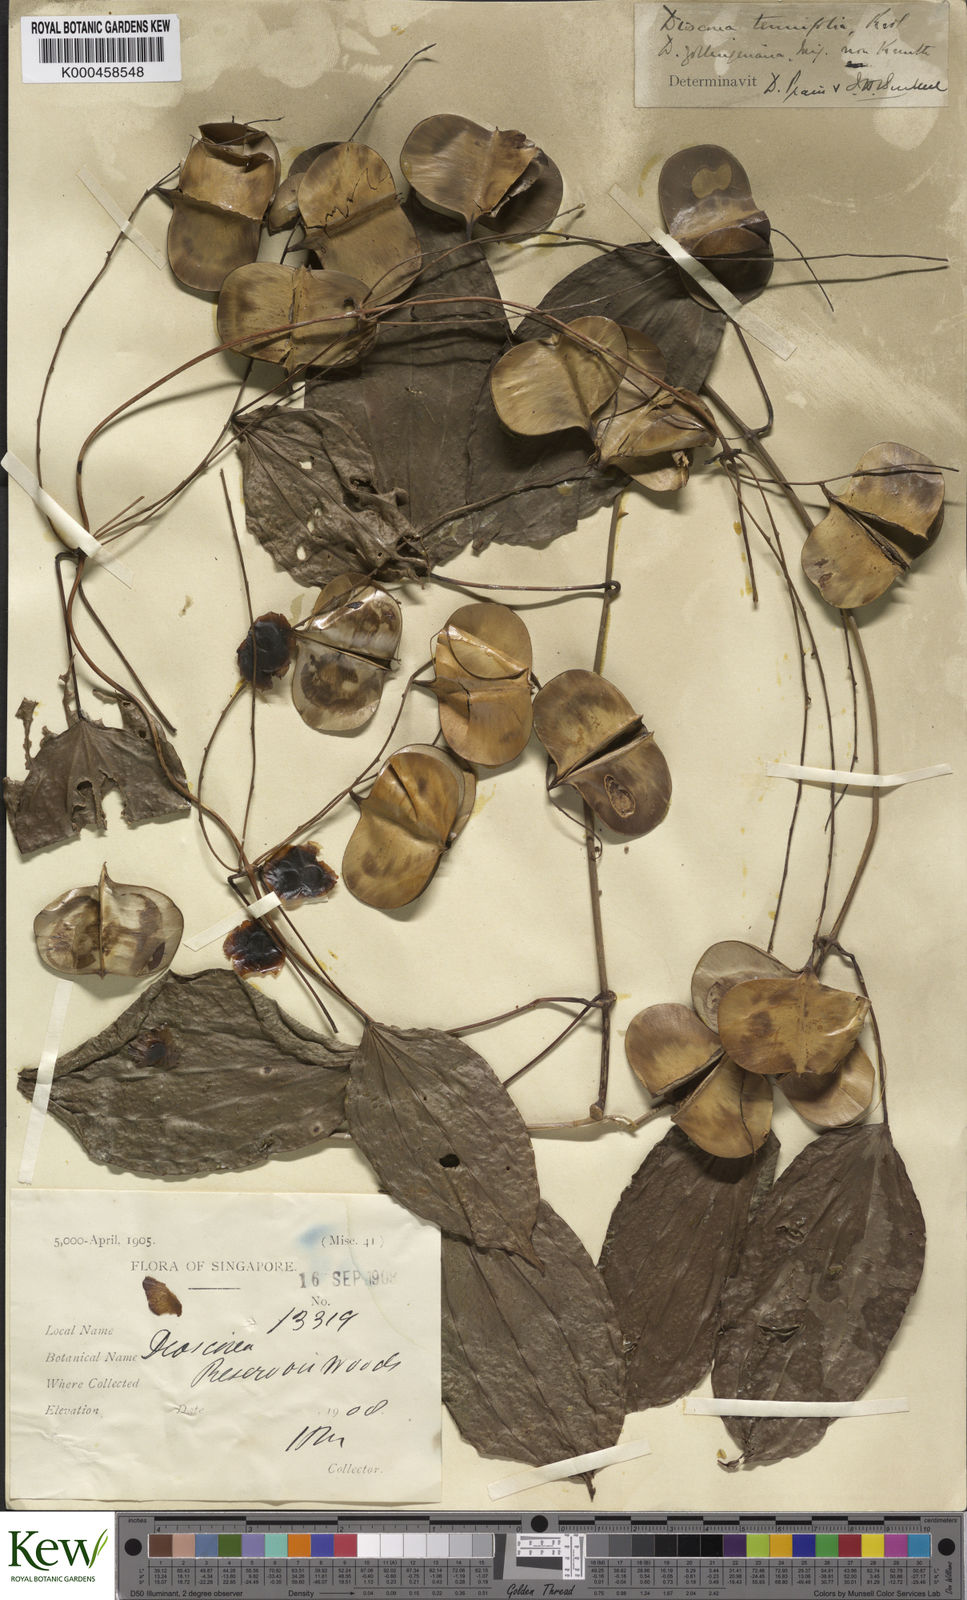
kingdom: Plantae
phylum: Tracheophyta
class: Liliopsida
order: Dioscoreales
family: Dioscoreaceae
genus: Dioscorea
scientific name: Dioscorea tenuifolia
